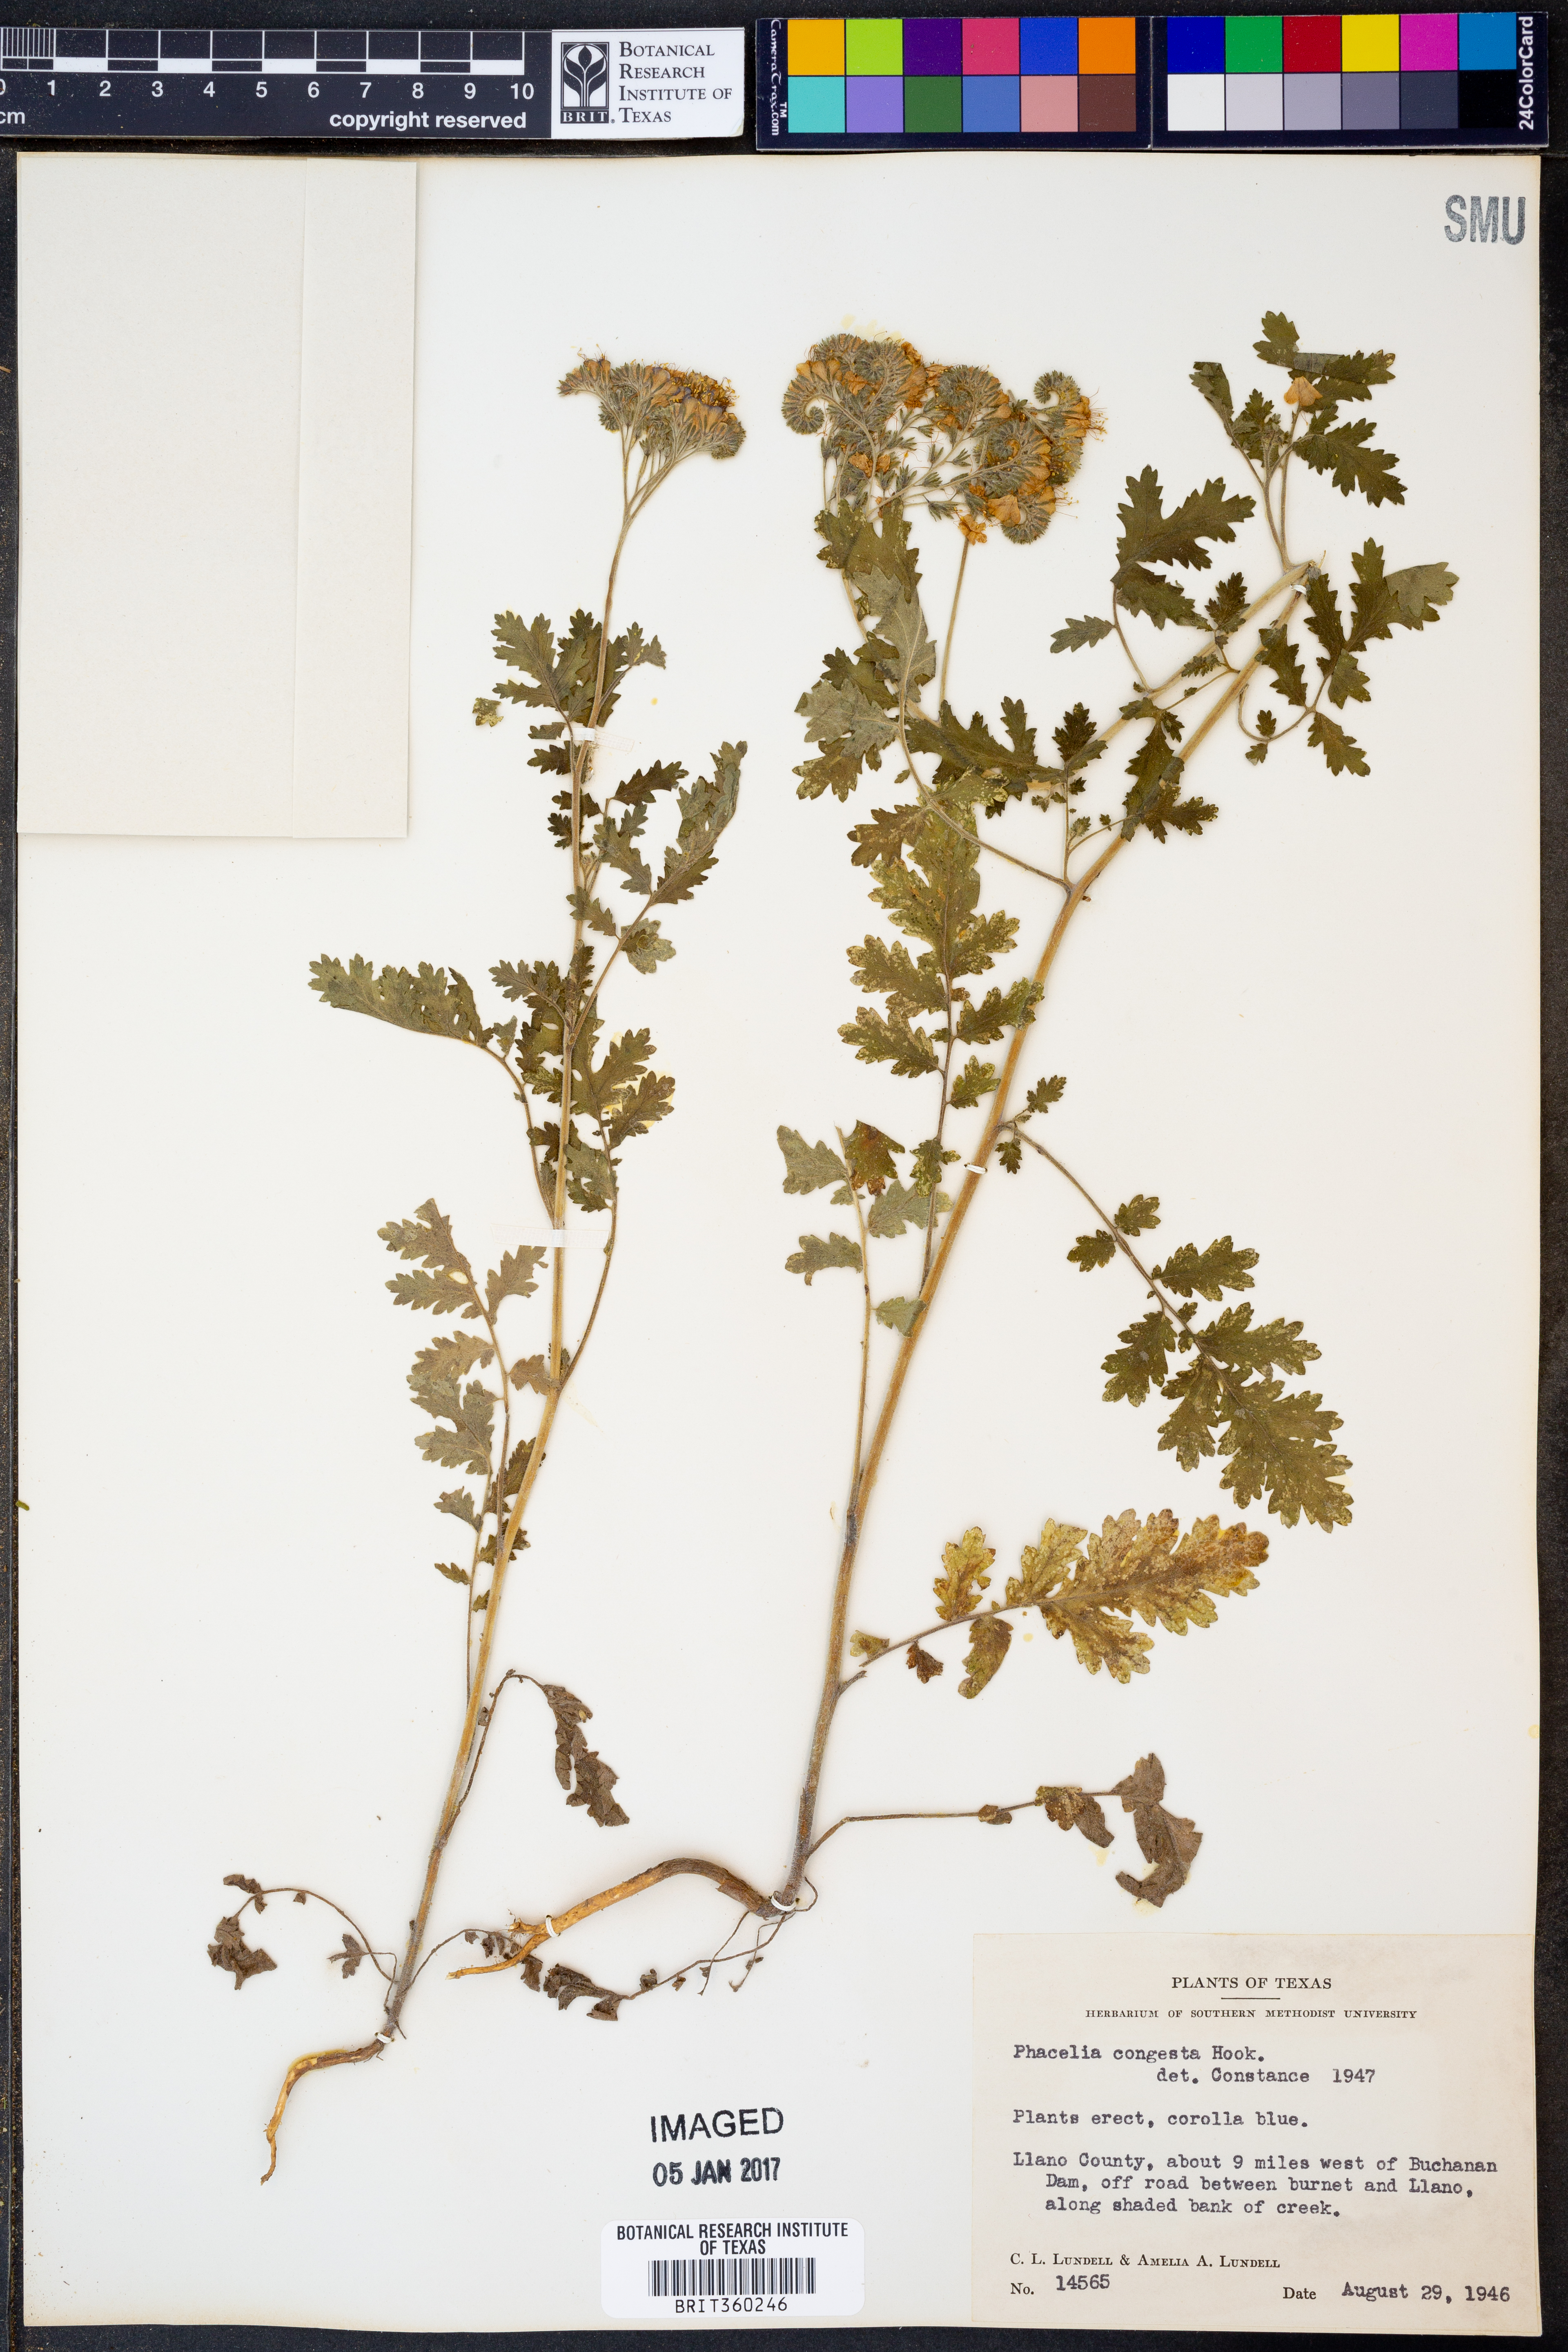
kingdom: Plantae
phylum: Tracheophyta
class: Magnoliopsida
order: Boraginales
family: Hydrophyllaceae
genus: Phacelia
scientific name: Phacelia congesta
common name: Blue curls
